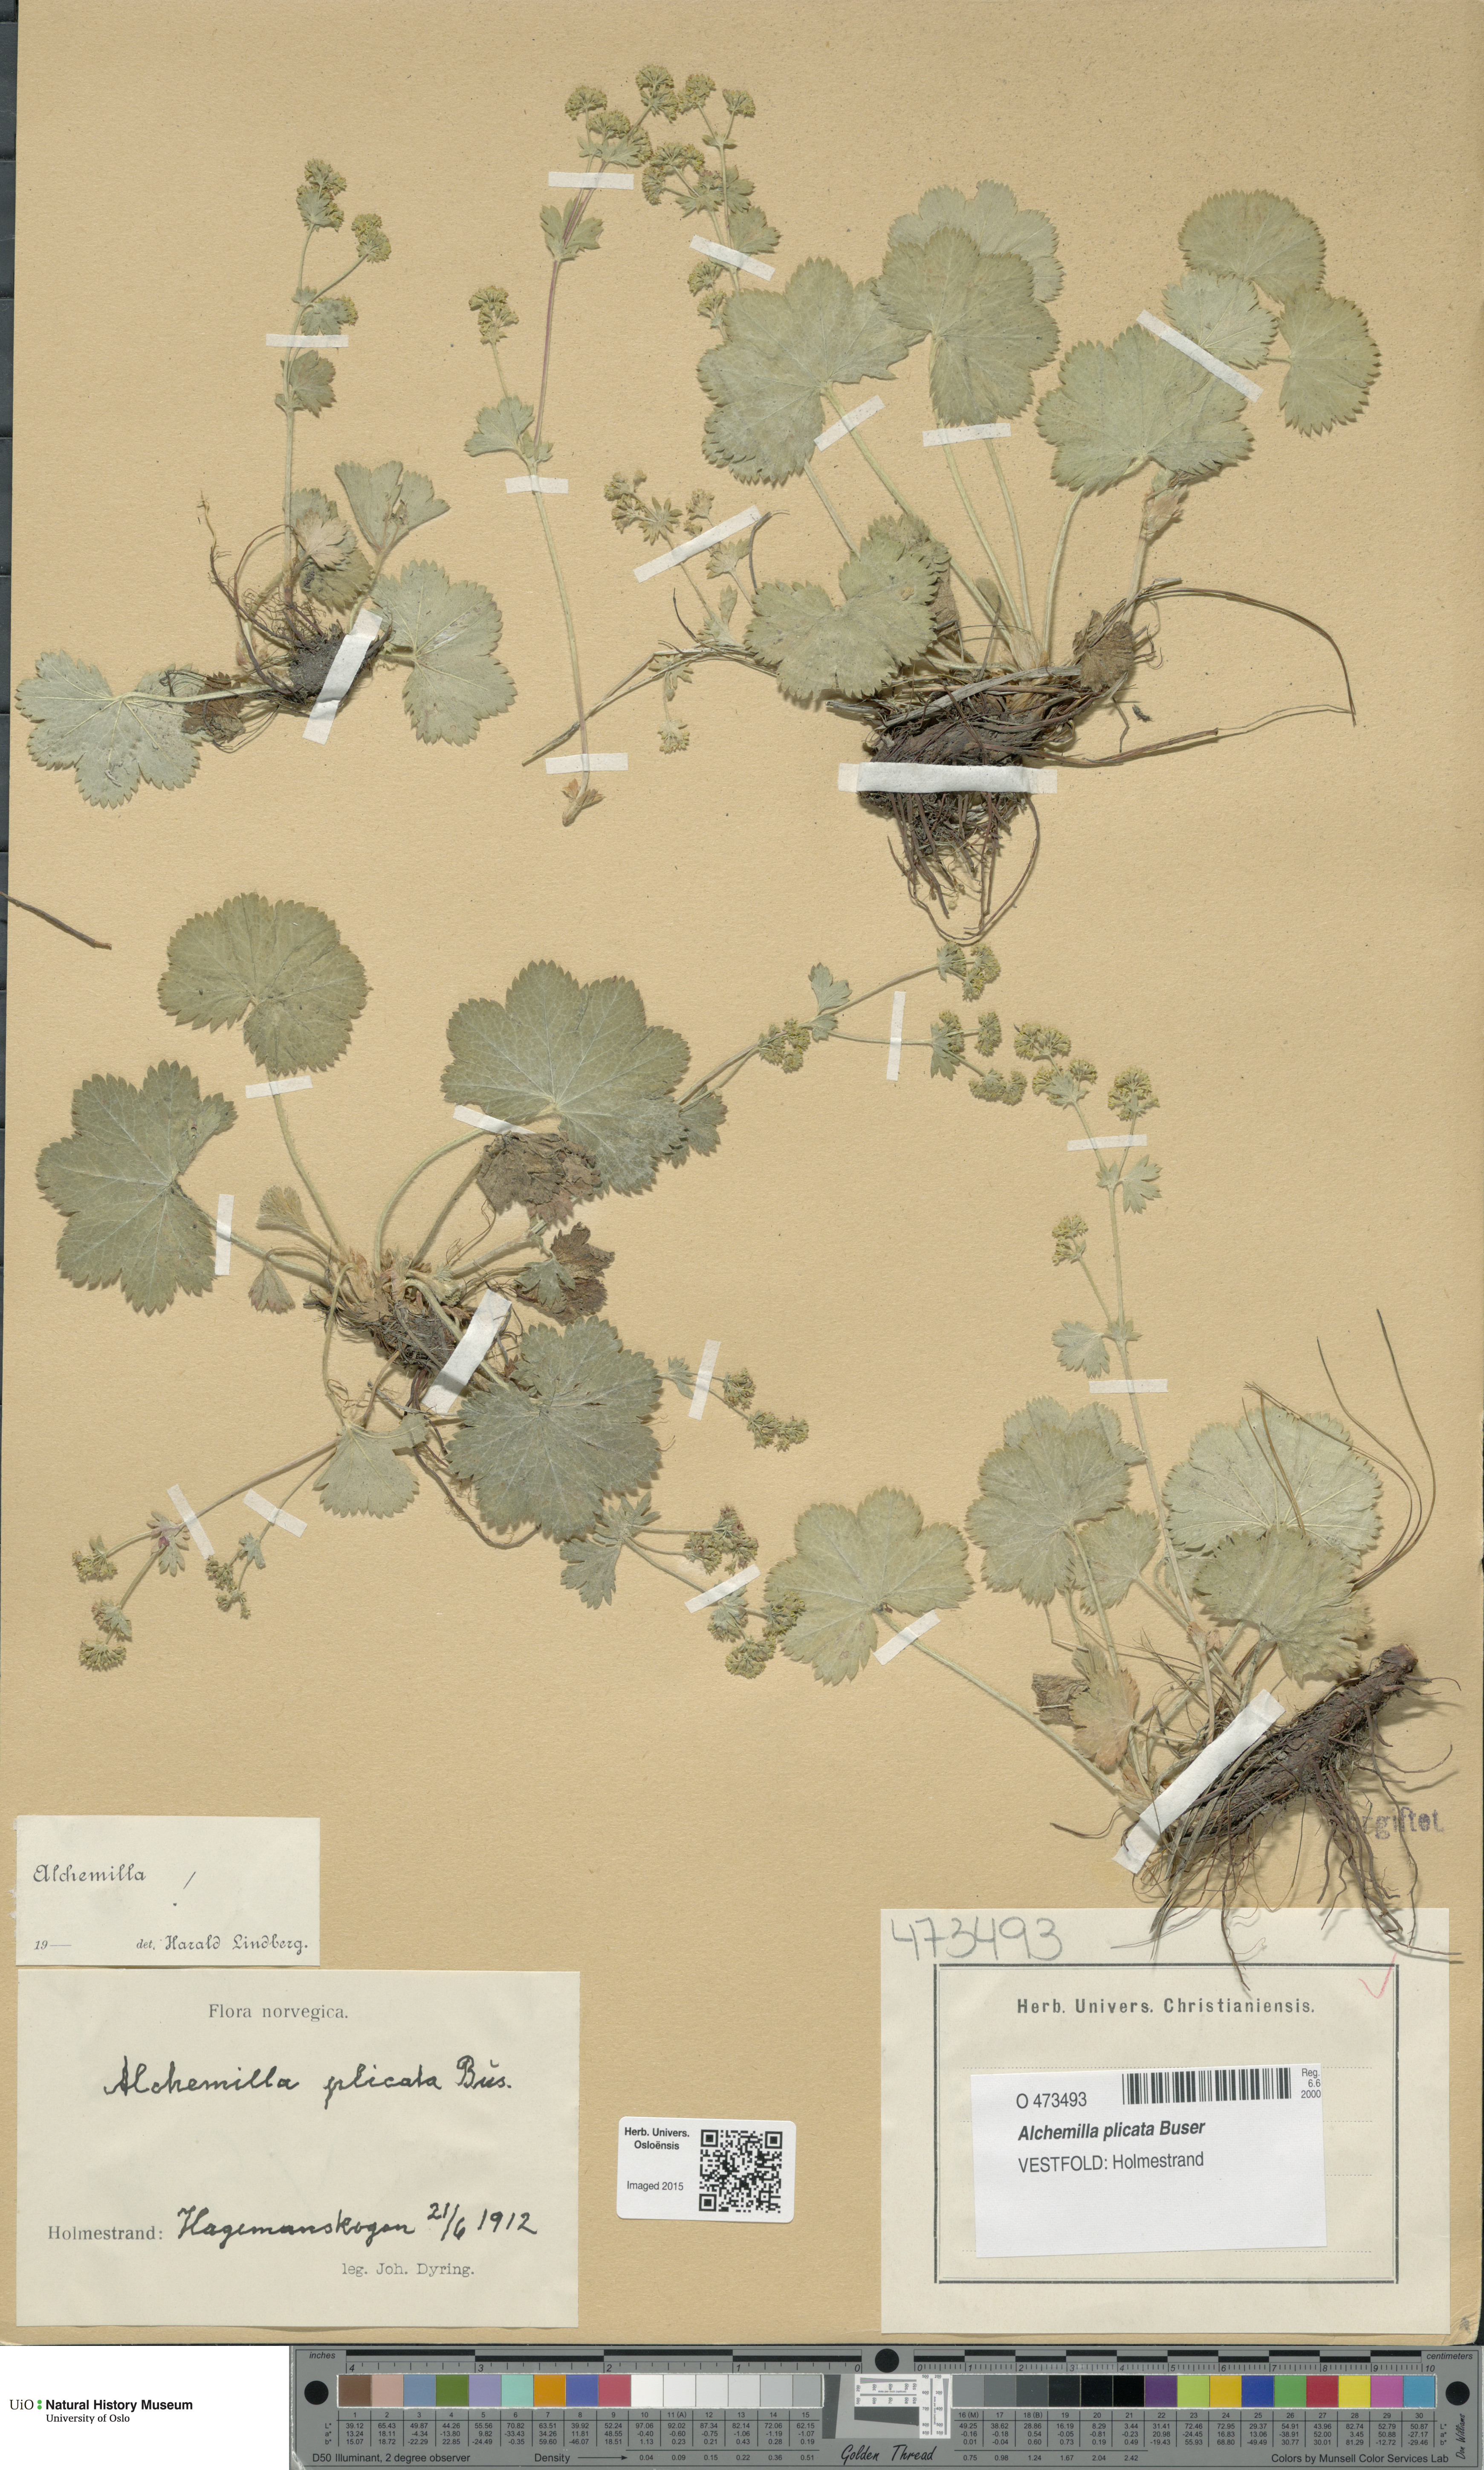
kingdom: Plantae
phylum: Tracheophyta
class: Magnoliopsida
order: Rosales
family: Rosaceae
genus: Alchemilla
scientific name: Alchemilla plicata
